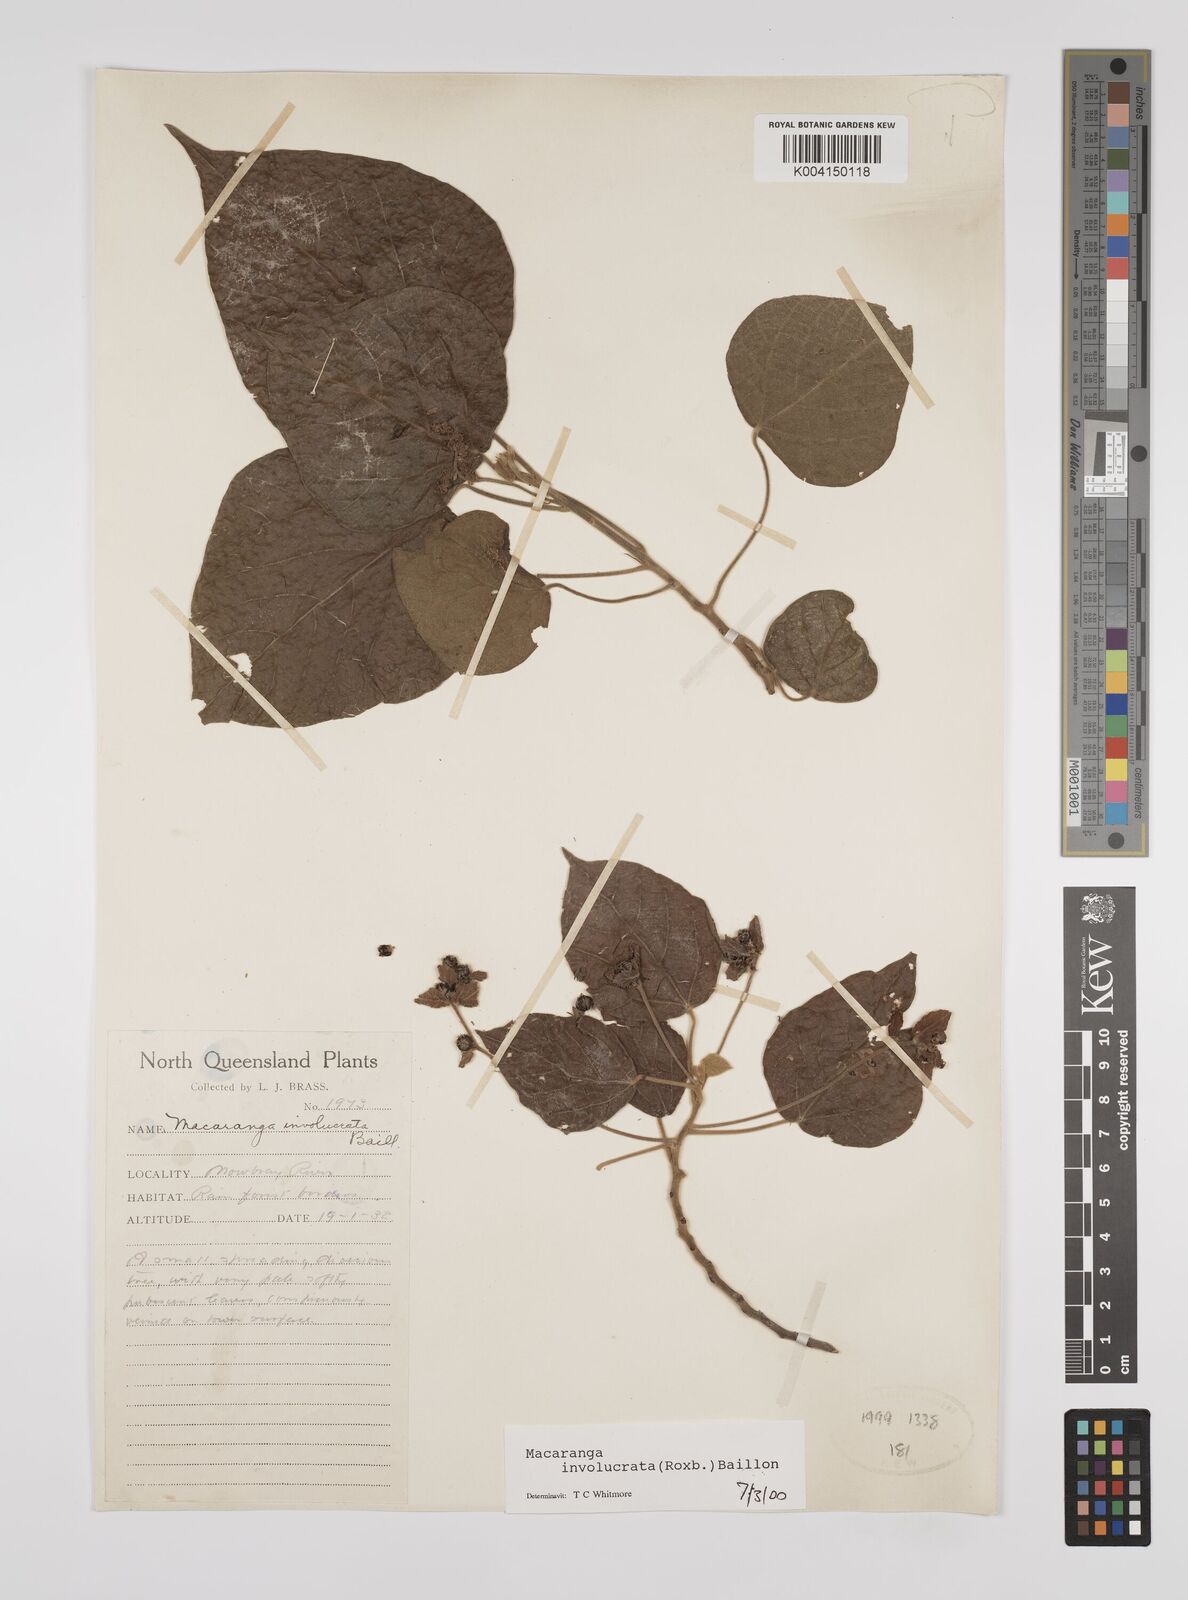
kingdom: Plantae
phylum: Tracheophyta
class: Magnoliopsida
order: Malpighiales
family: Euphorbiaceae
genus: Macaranga
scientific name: Macaranga involucrata
